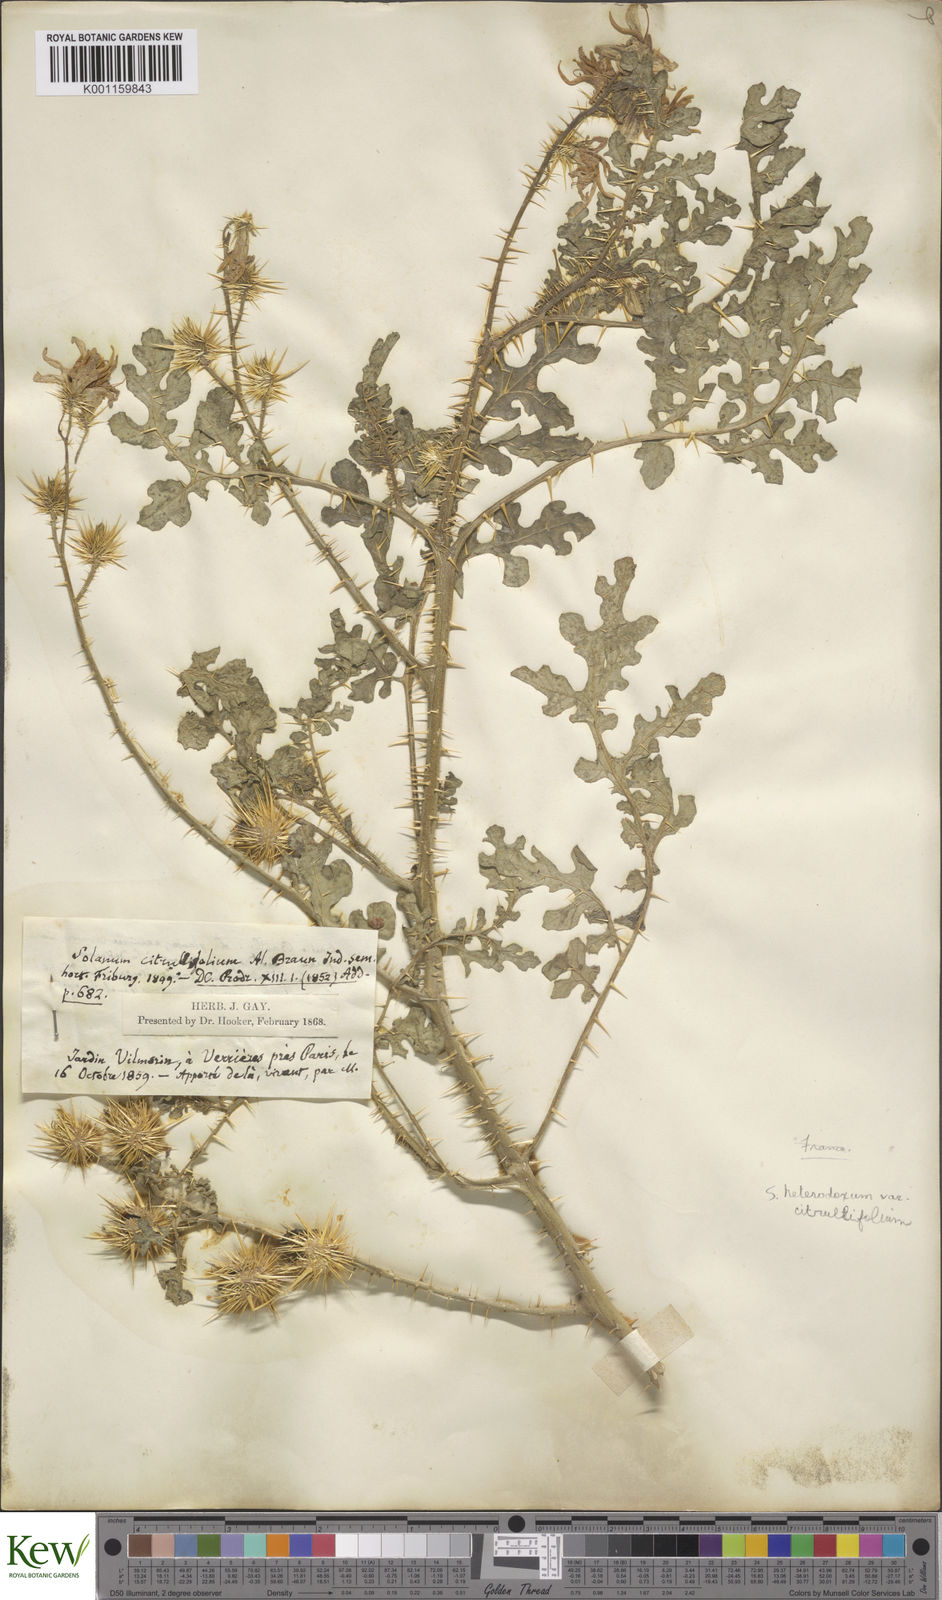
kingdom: Plantae
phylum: Tracheophyta
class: Magnoliopsida
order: Solanales
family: Solanaceae
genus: Solanum
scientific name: Solanum heterodoxum
